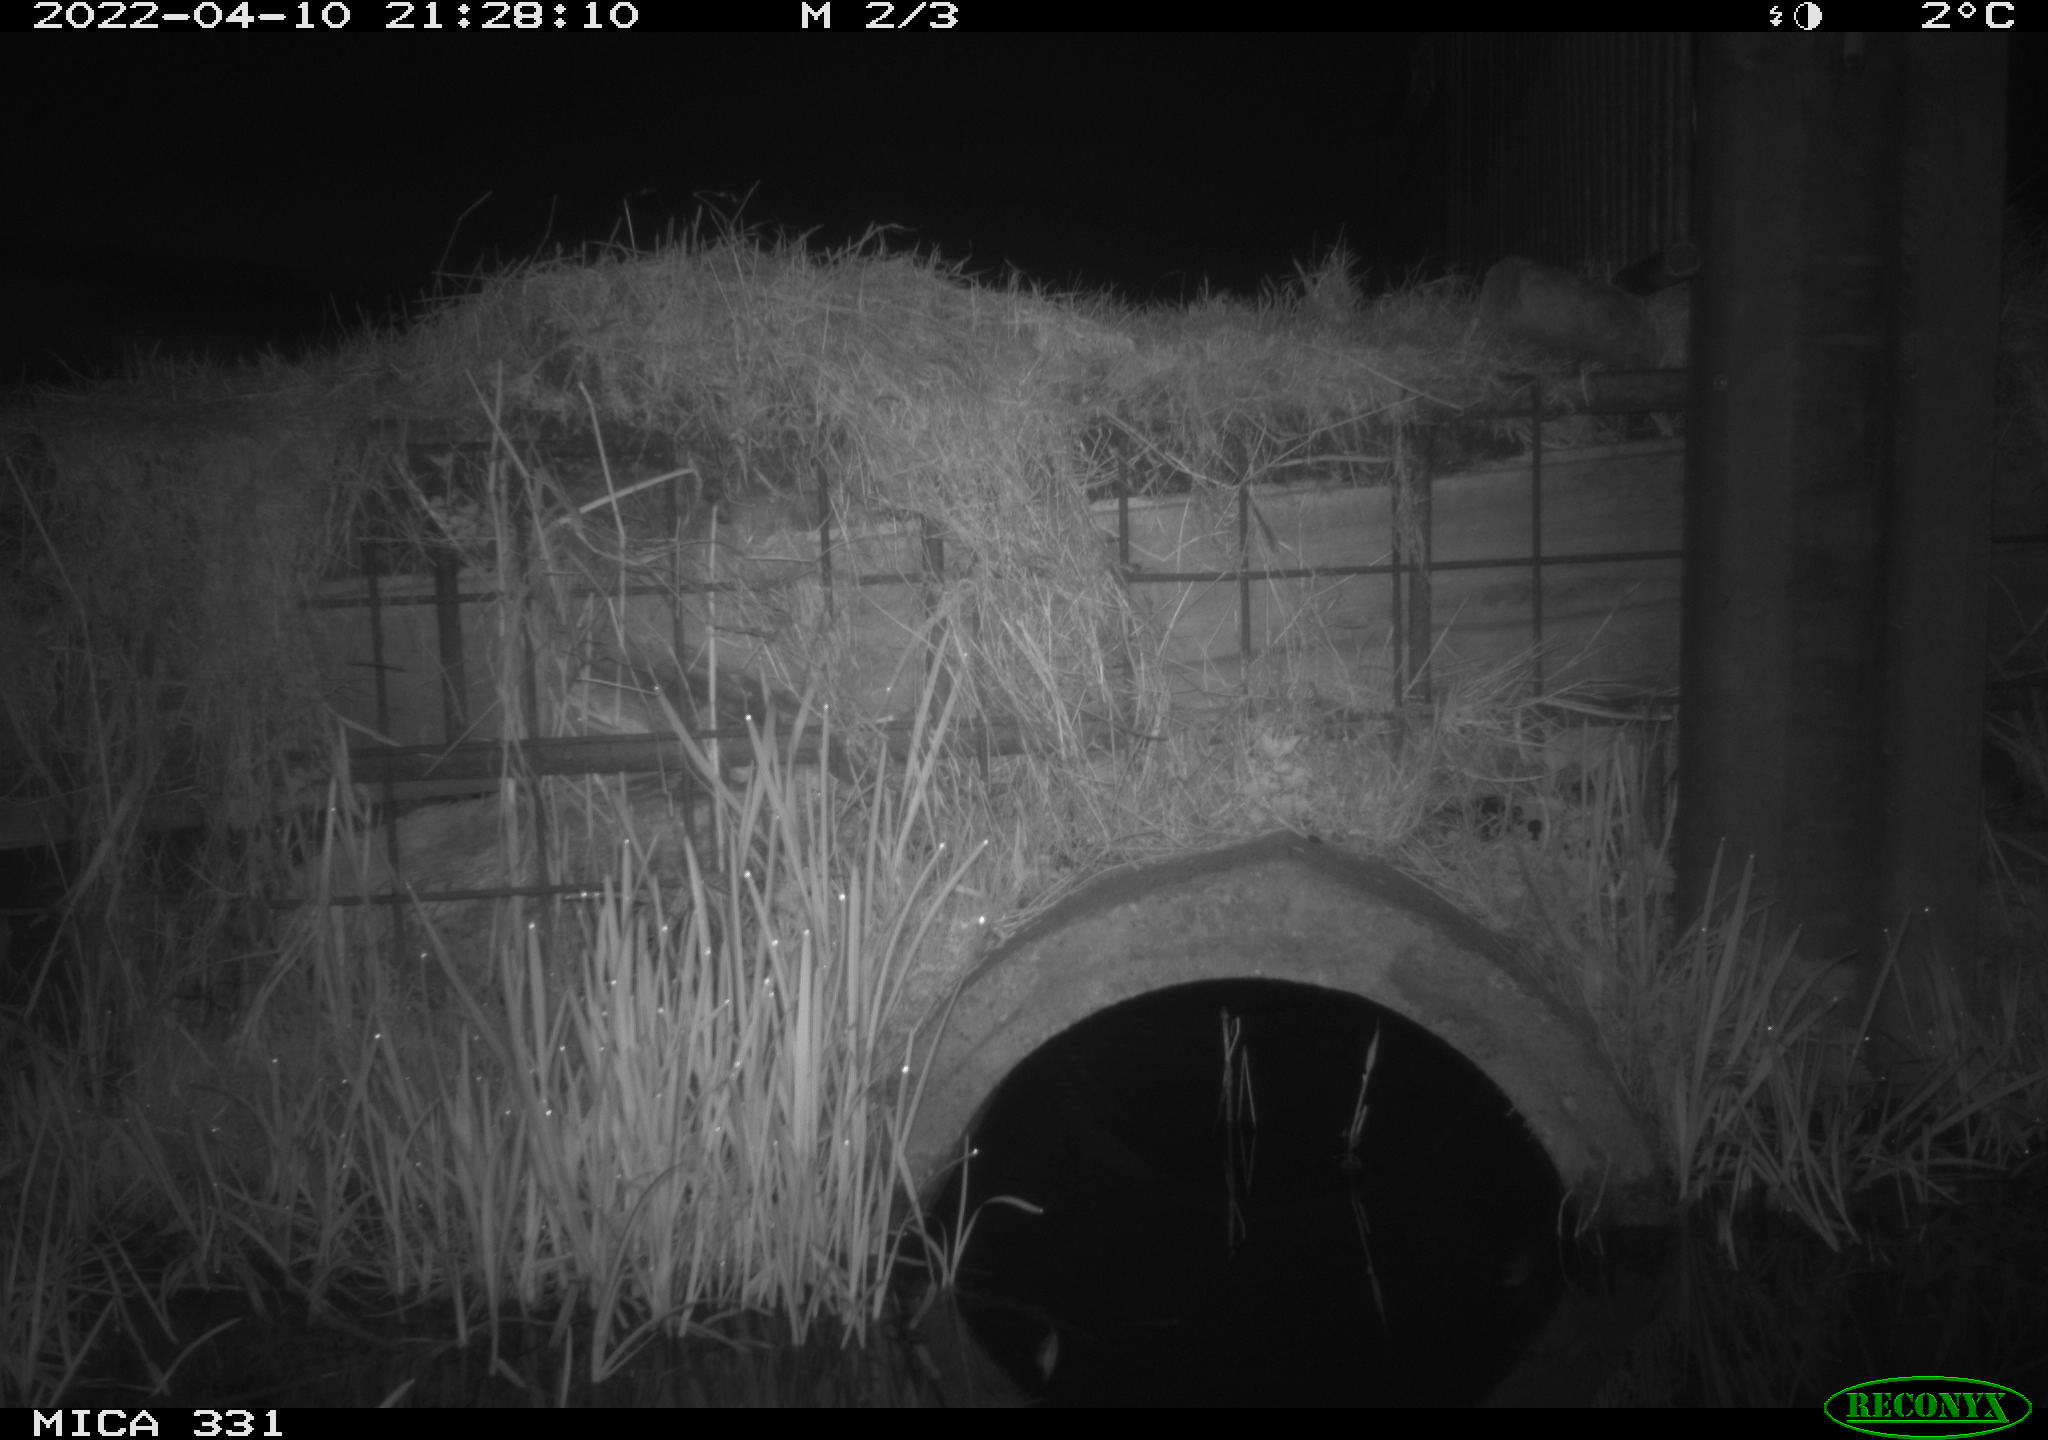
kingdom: Animalia
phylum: Chordata
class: Mammalia
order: Rodentia
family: Muridae
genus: Rattus
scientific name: Rattus norvegicus
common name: Brown rat
